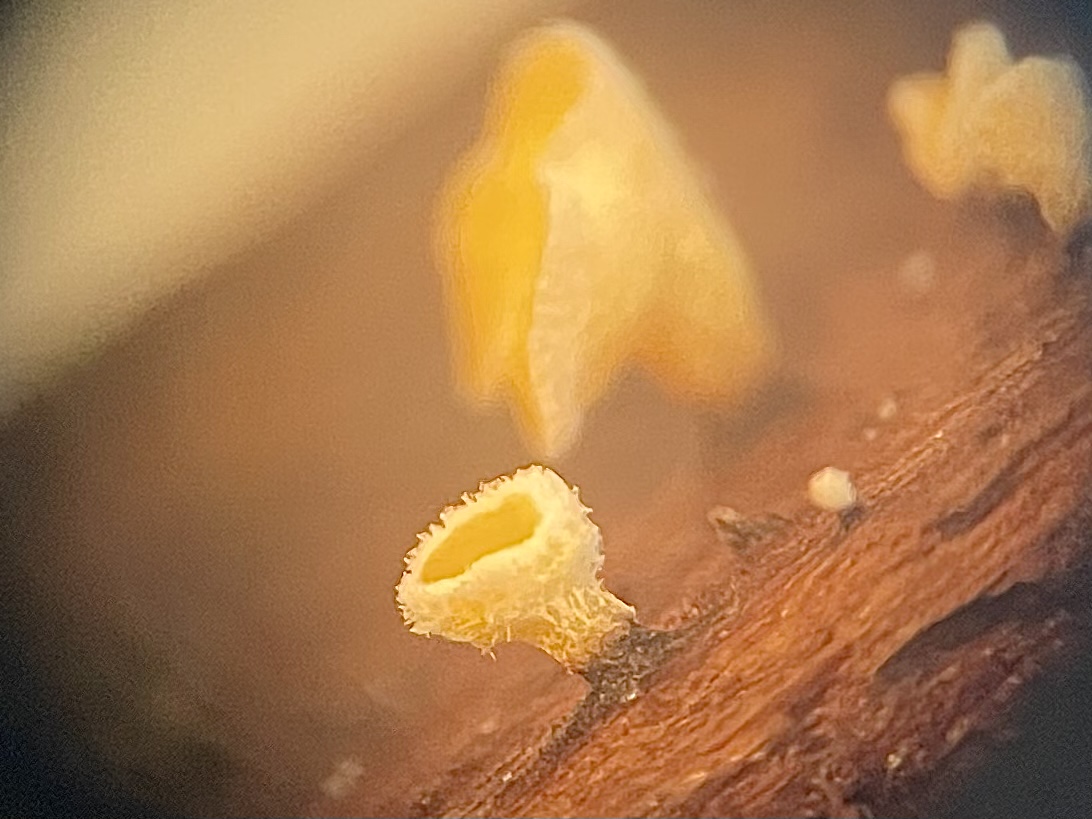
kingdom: Fungi
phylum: Ascomycota
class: Leotiomycetes
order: Helotiales
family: Lachnaceae
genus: Lachnellula
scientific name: Lachnellula
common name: frynseskive
